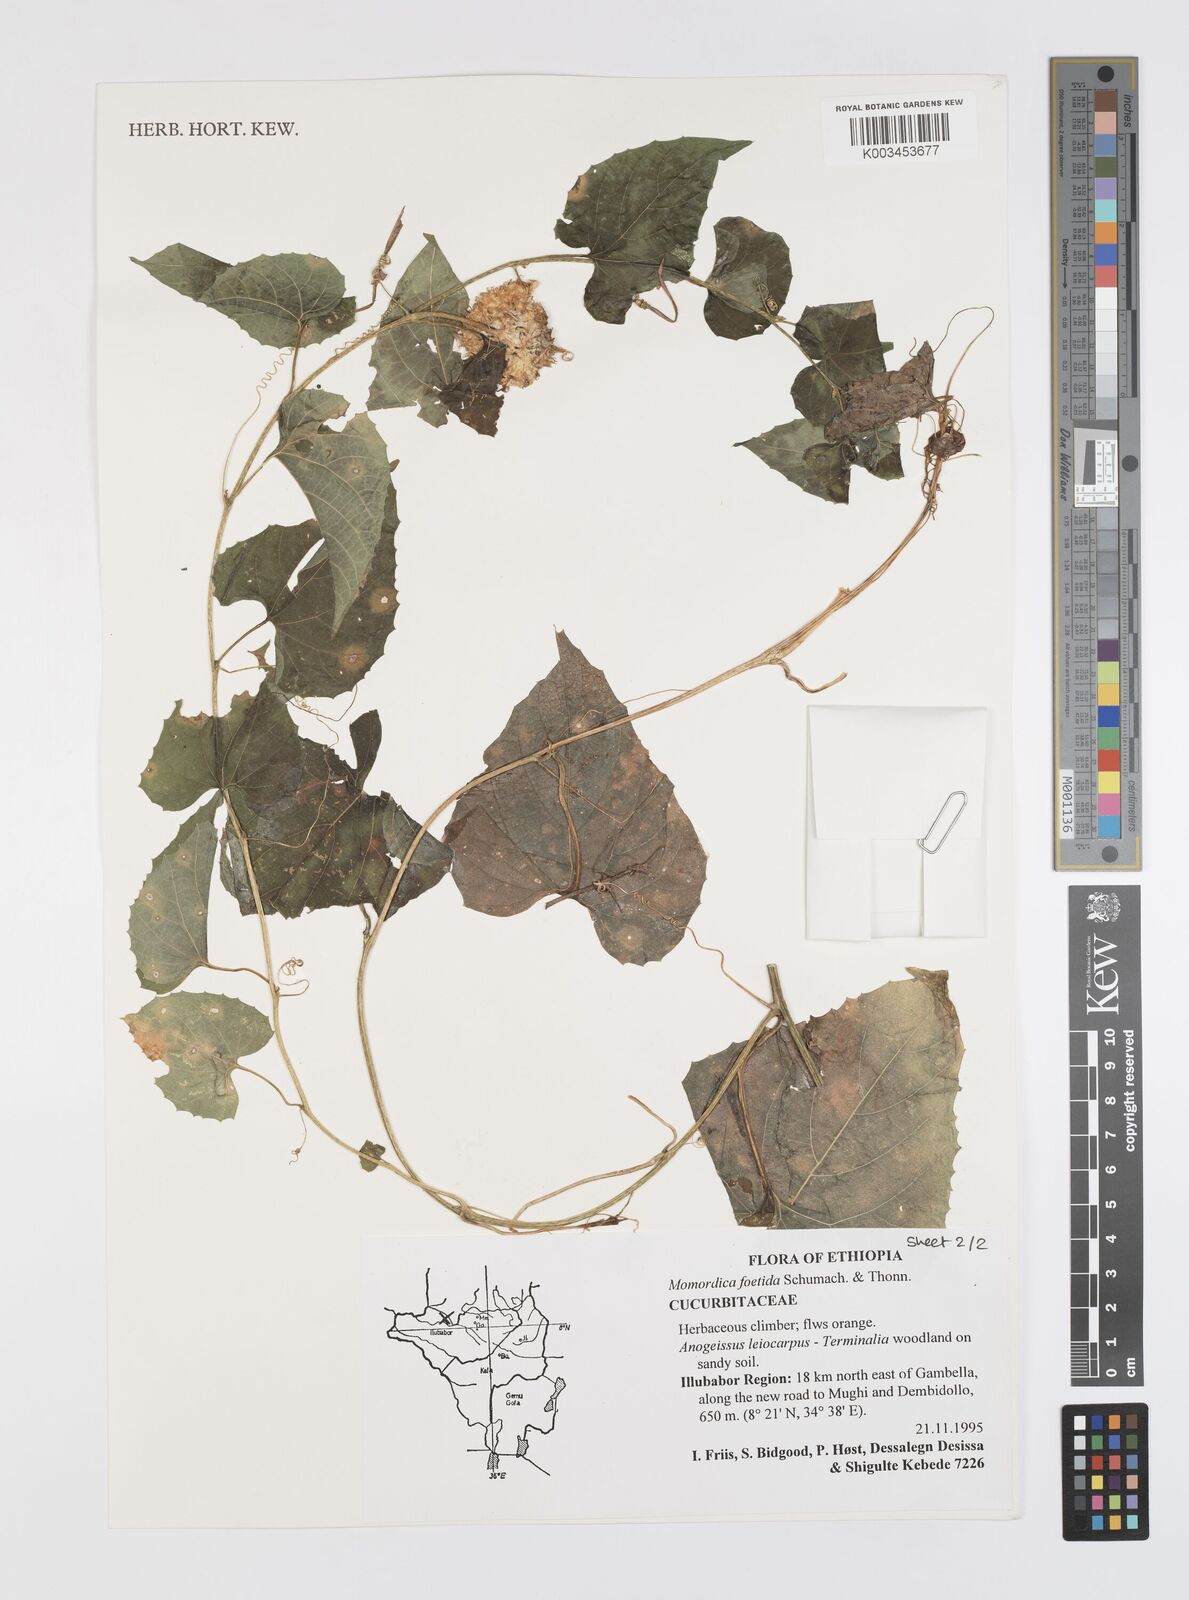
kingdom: Plantae
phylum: Tracheophyta
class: Magnoliopsida
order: Cucurbitales
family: Cucurbitaceae
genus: Momordica
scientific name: Momordica foetida
